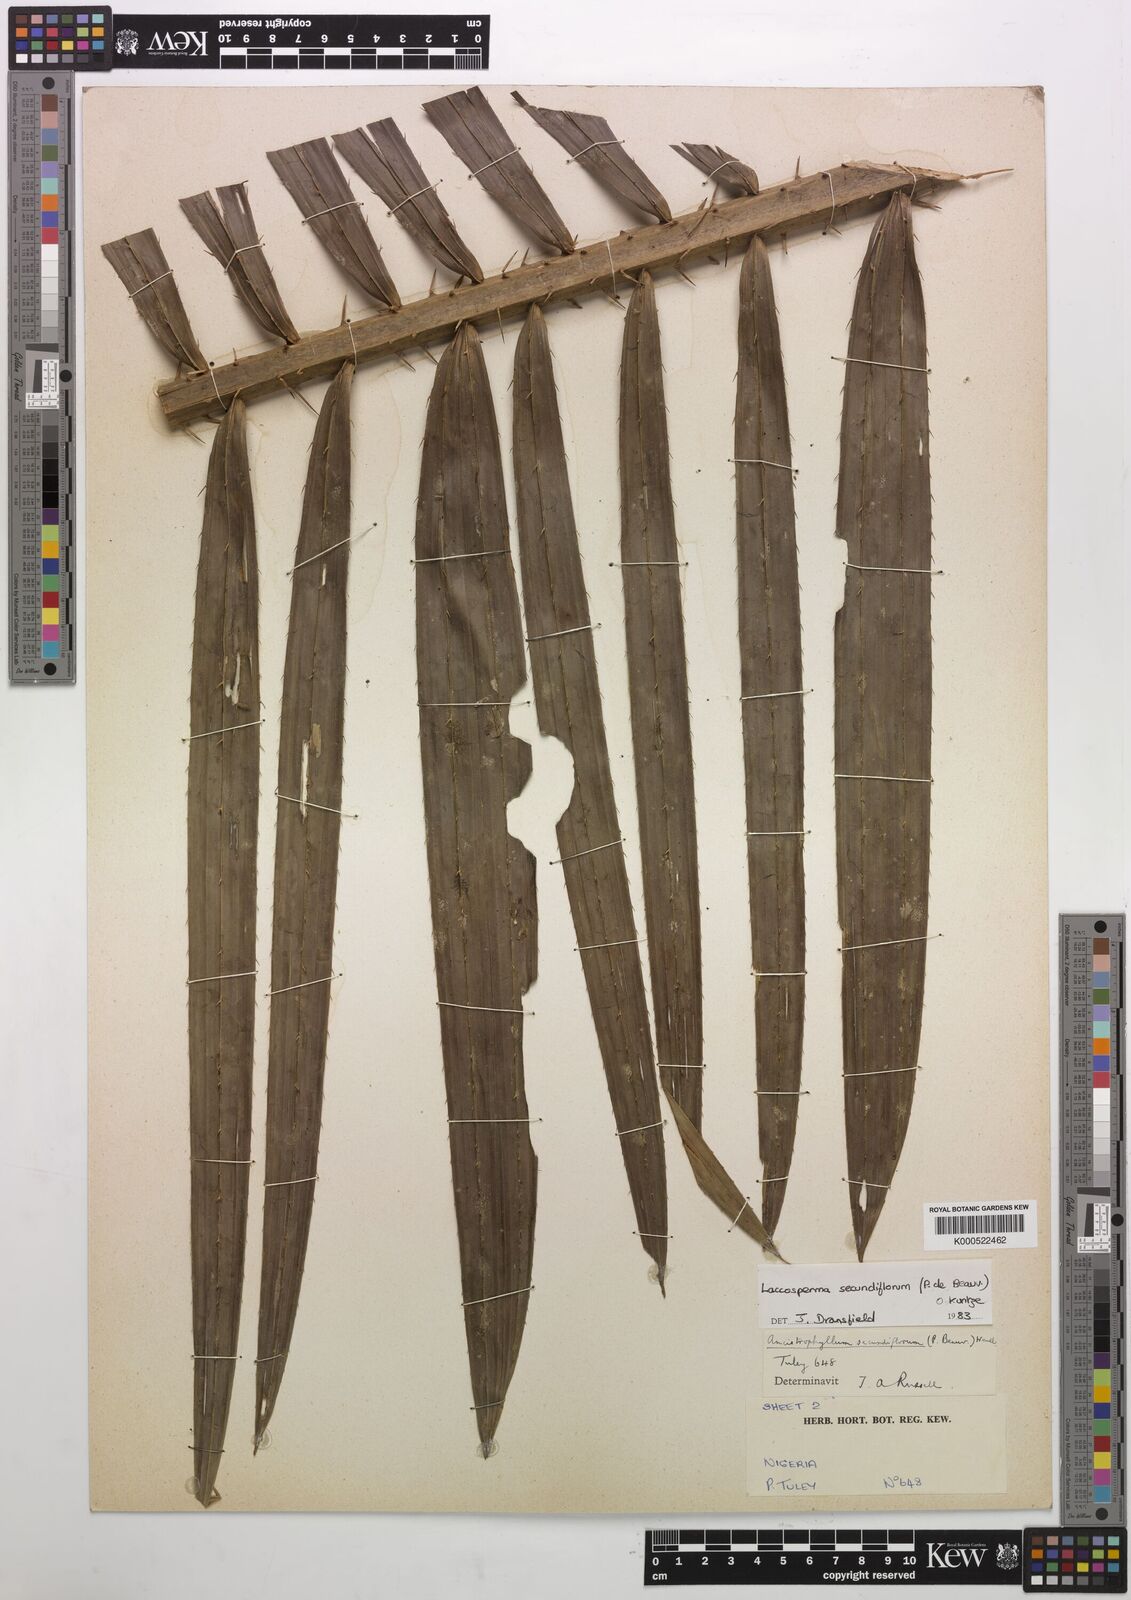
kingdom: Plantae
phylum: Tracheophyta
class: Liliopsida
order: Arecales
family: Arecaceae
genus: Laccosperma
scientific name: Laccosperma secundiflorum
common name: Rattan
